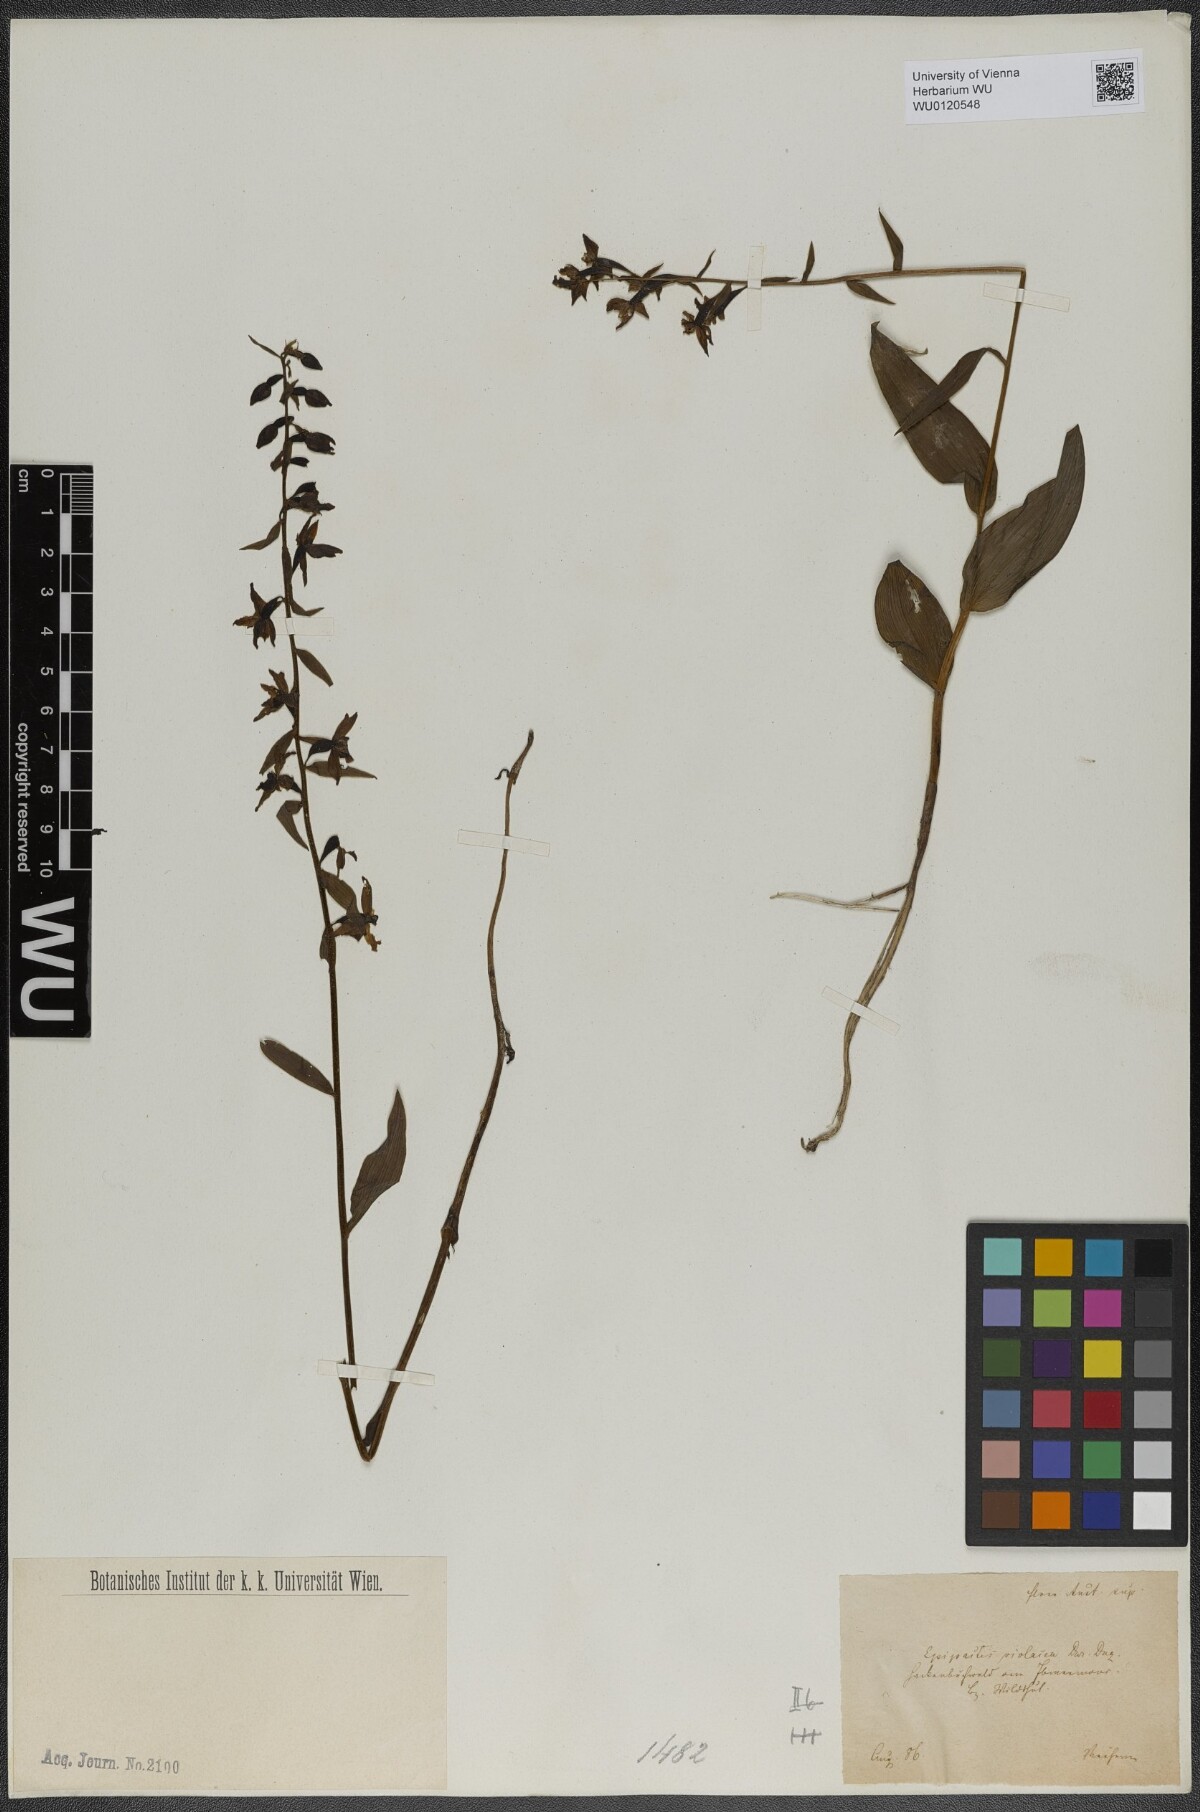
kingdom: Plantae
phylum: Tracheophyta
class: Liliopsida
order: Asparagales
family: Orchidaceae
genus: Epipactis
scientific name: Epipactis purpurata
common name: Violet helleborine
